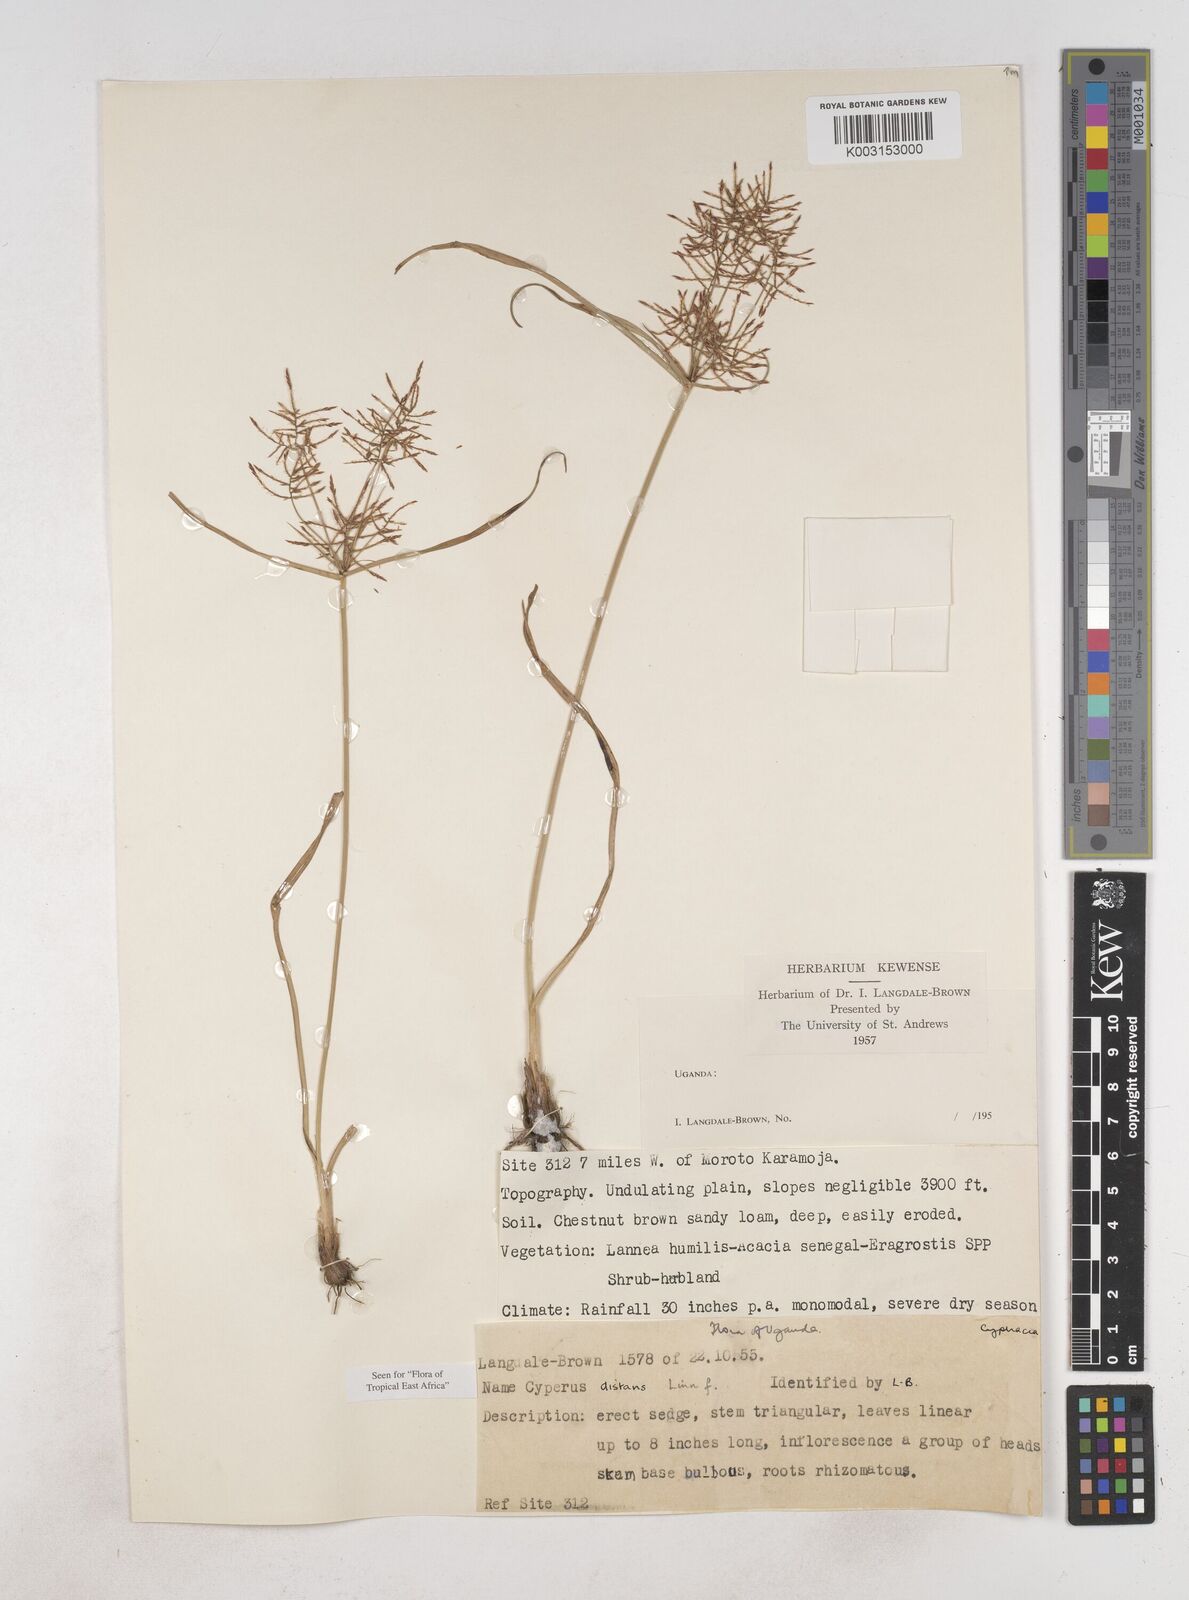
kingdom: Plantae
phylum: Tracheophyta
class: Liliopsida
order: Poales
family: Cyperaceae
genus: Cyperus
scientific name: Cyperus distans
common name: Slender cyperus
